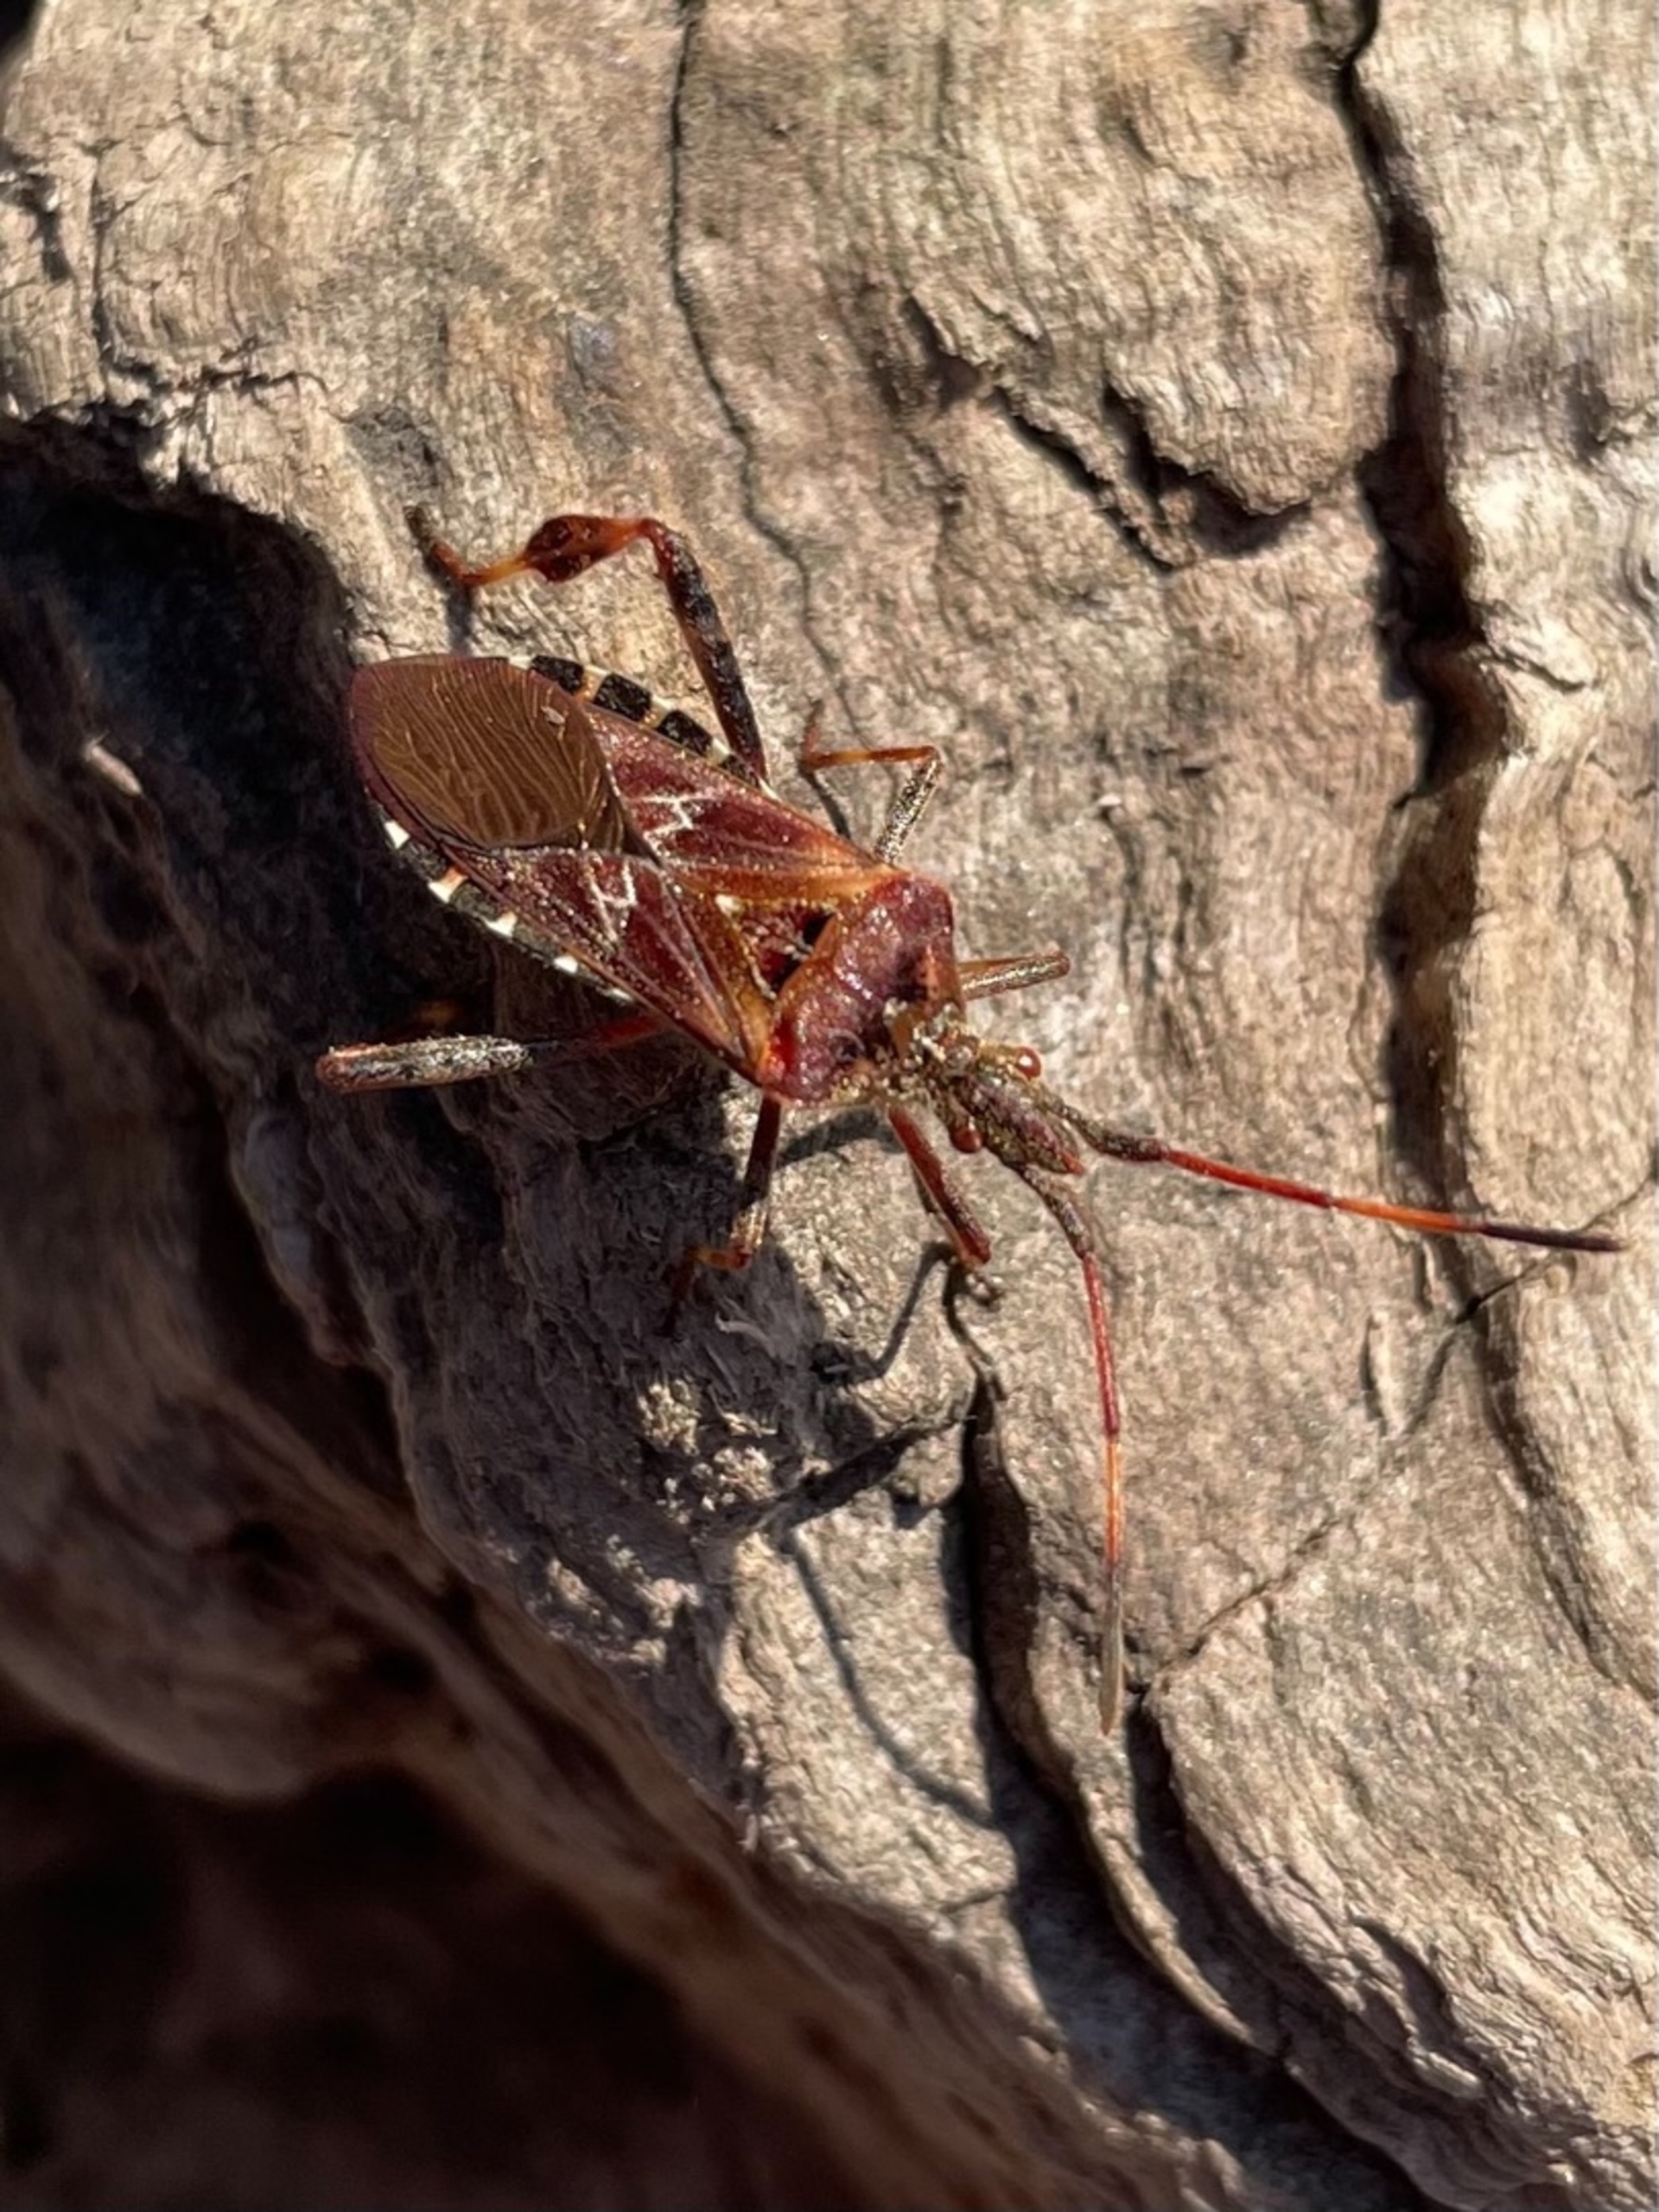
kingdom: Animalia
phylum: Arthropoda
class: Insecta
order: Hemiptera
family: Coreidae
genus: Leptoglossus
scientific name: Leptoglossus occidentalis
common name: Amerikansk fyrretæge
